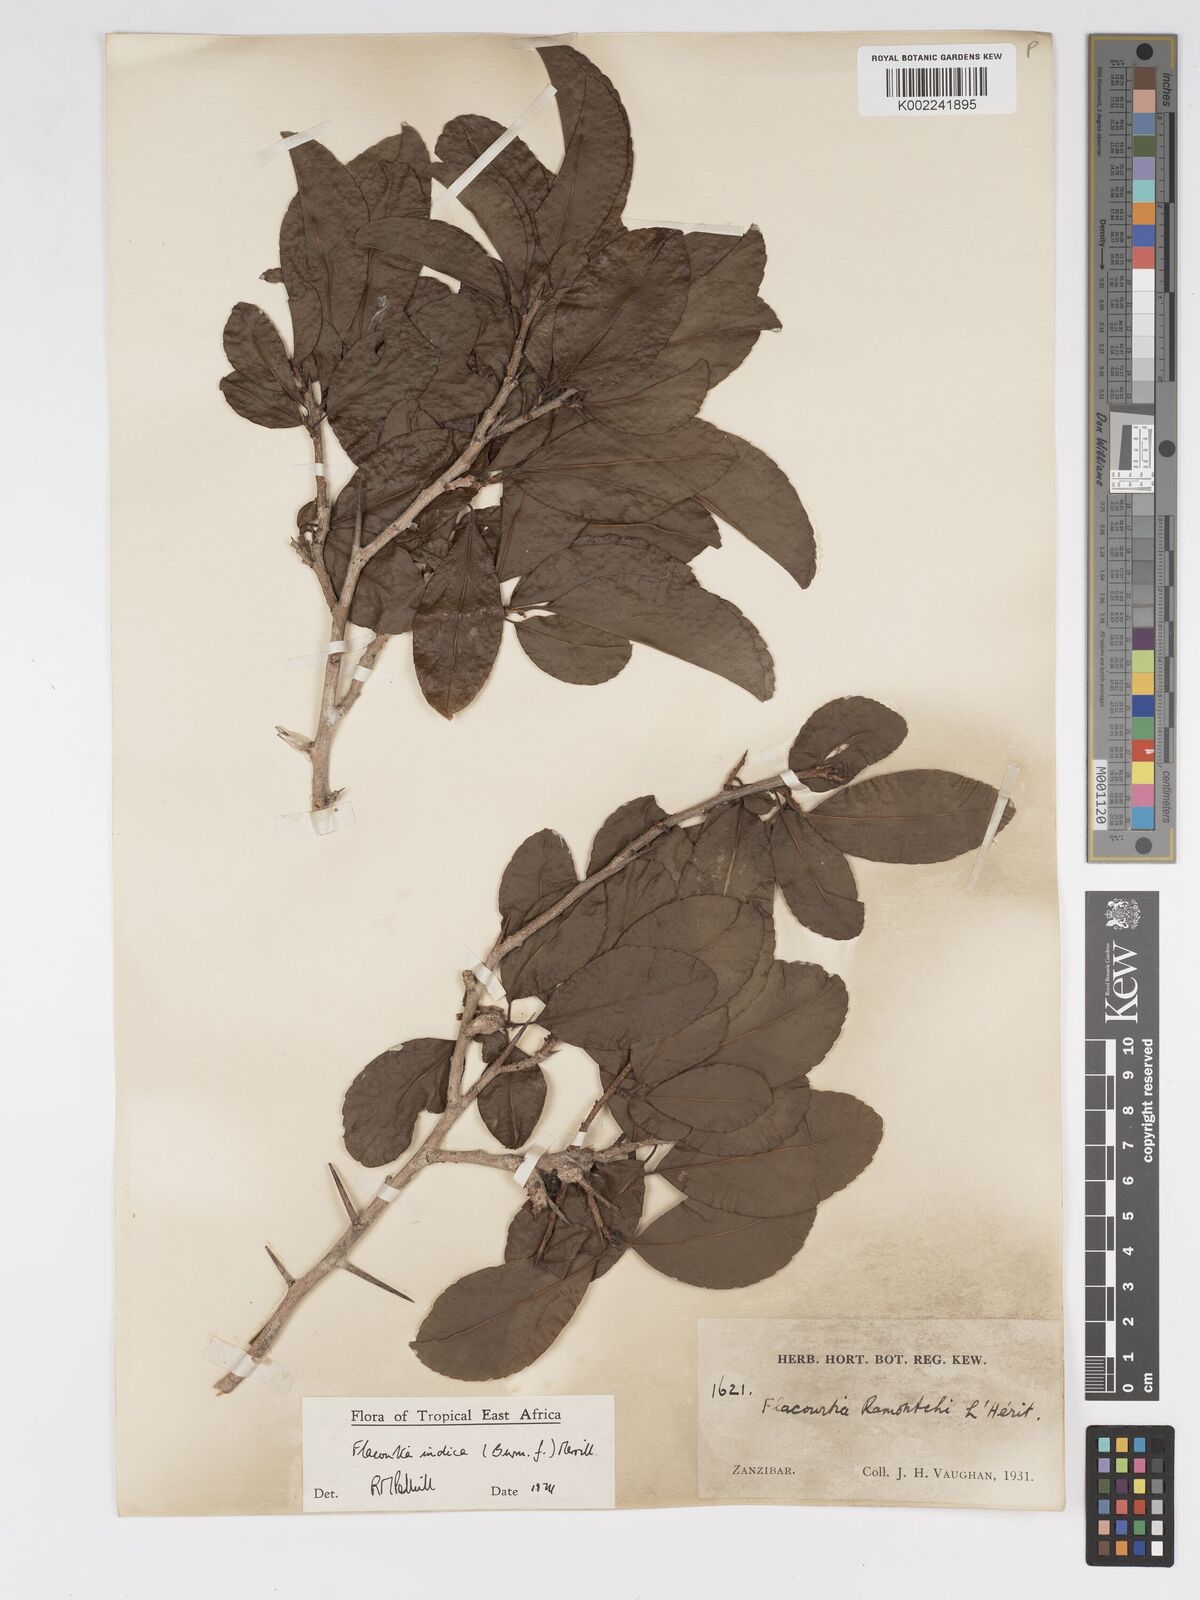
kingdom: Plantae
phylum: Tracheophyta
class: Magnoliopsida
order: Malpighiales
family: Salicaceae
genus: Flacourtia
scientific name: Flacourtia indica
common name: Governor's plum
